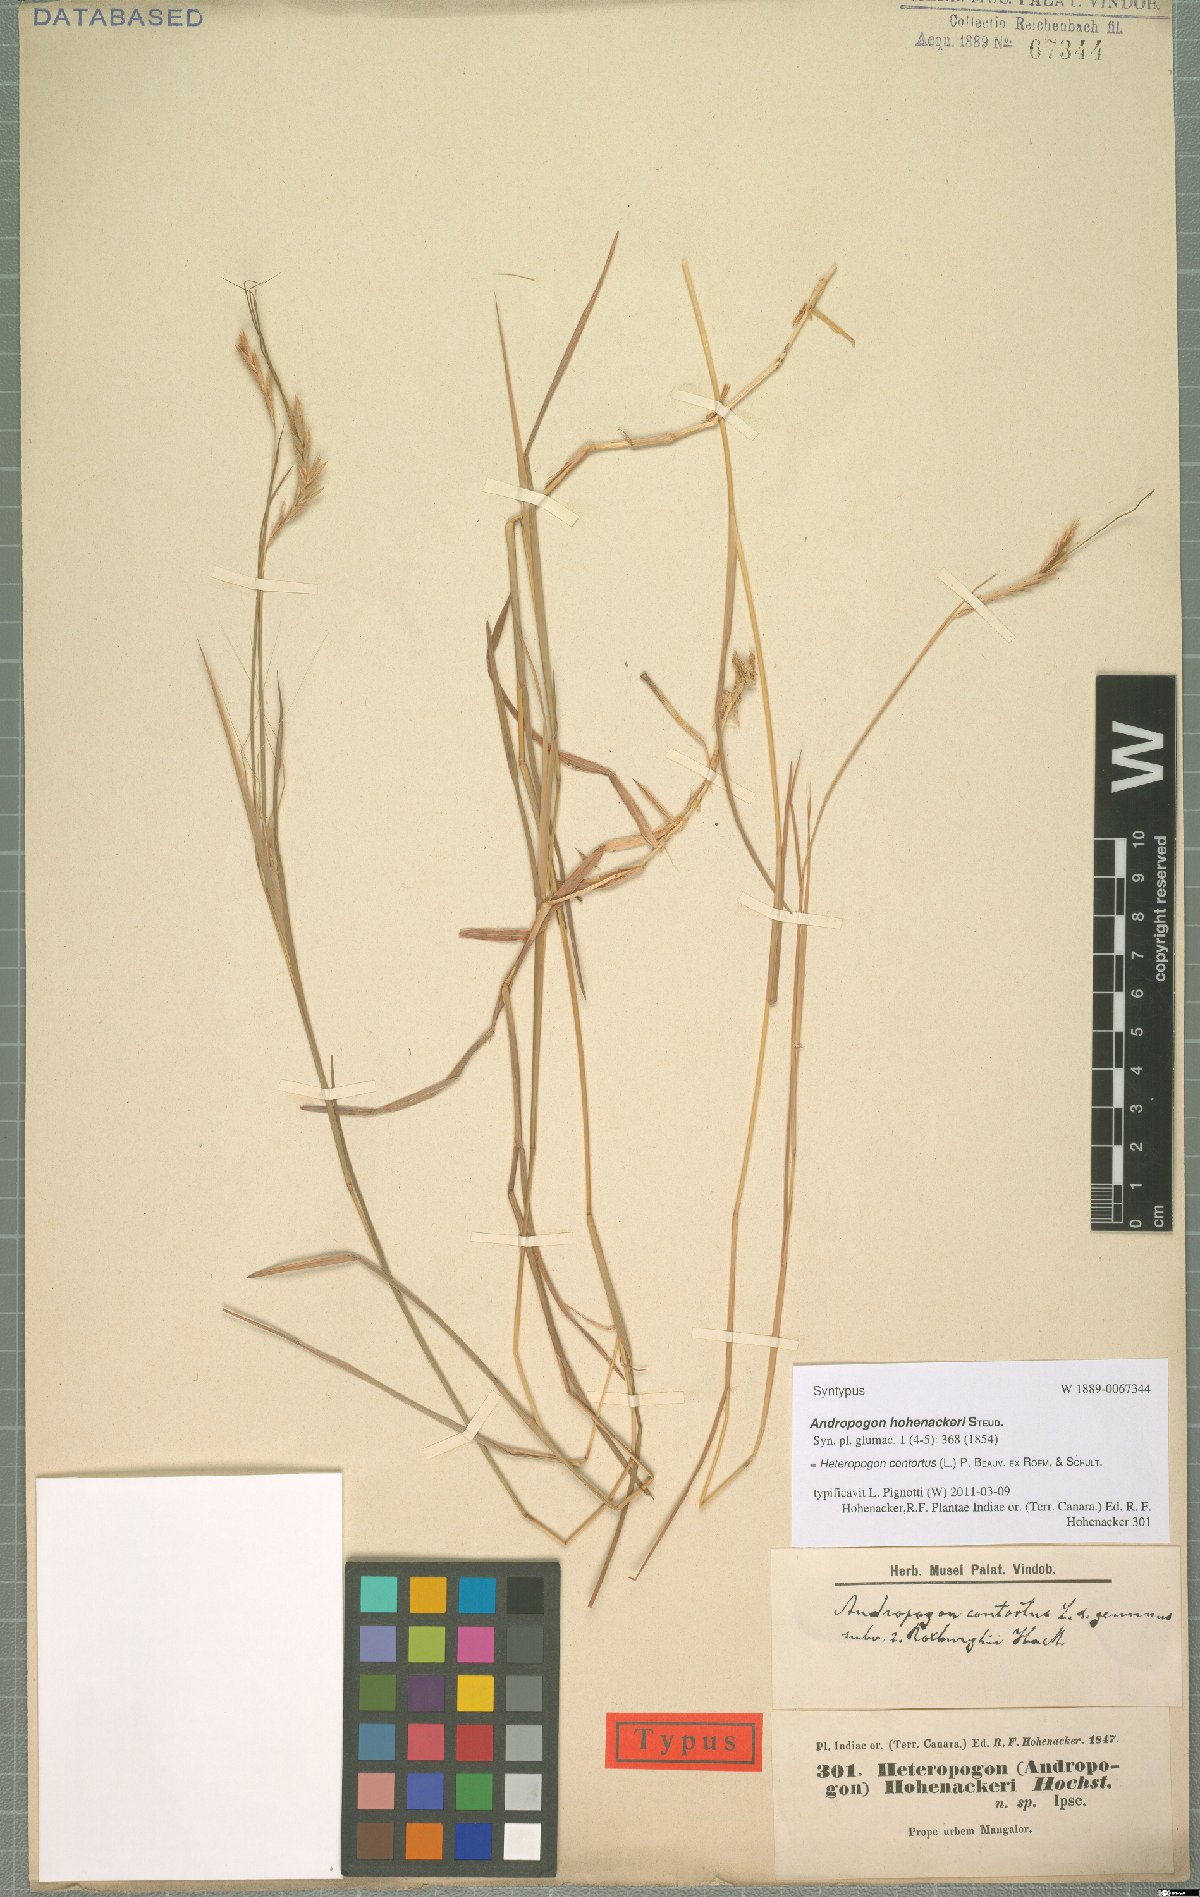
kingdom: Plantae
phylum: Tracheophyta
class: Liliopsida
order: Poales
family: Poaceae
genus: Heteropogon
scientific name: Heteropogon contortus
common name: Tanglehead
